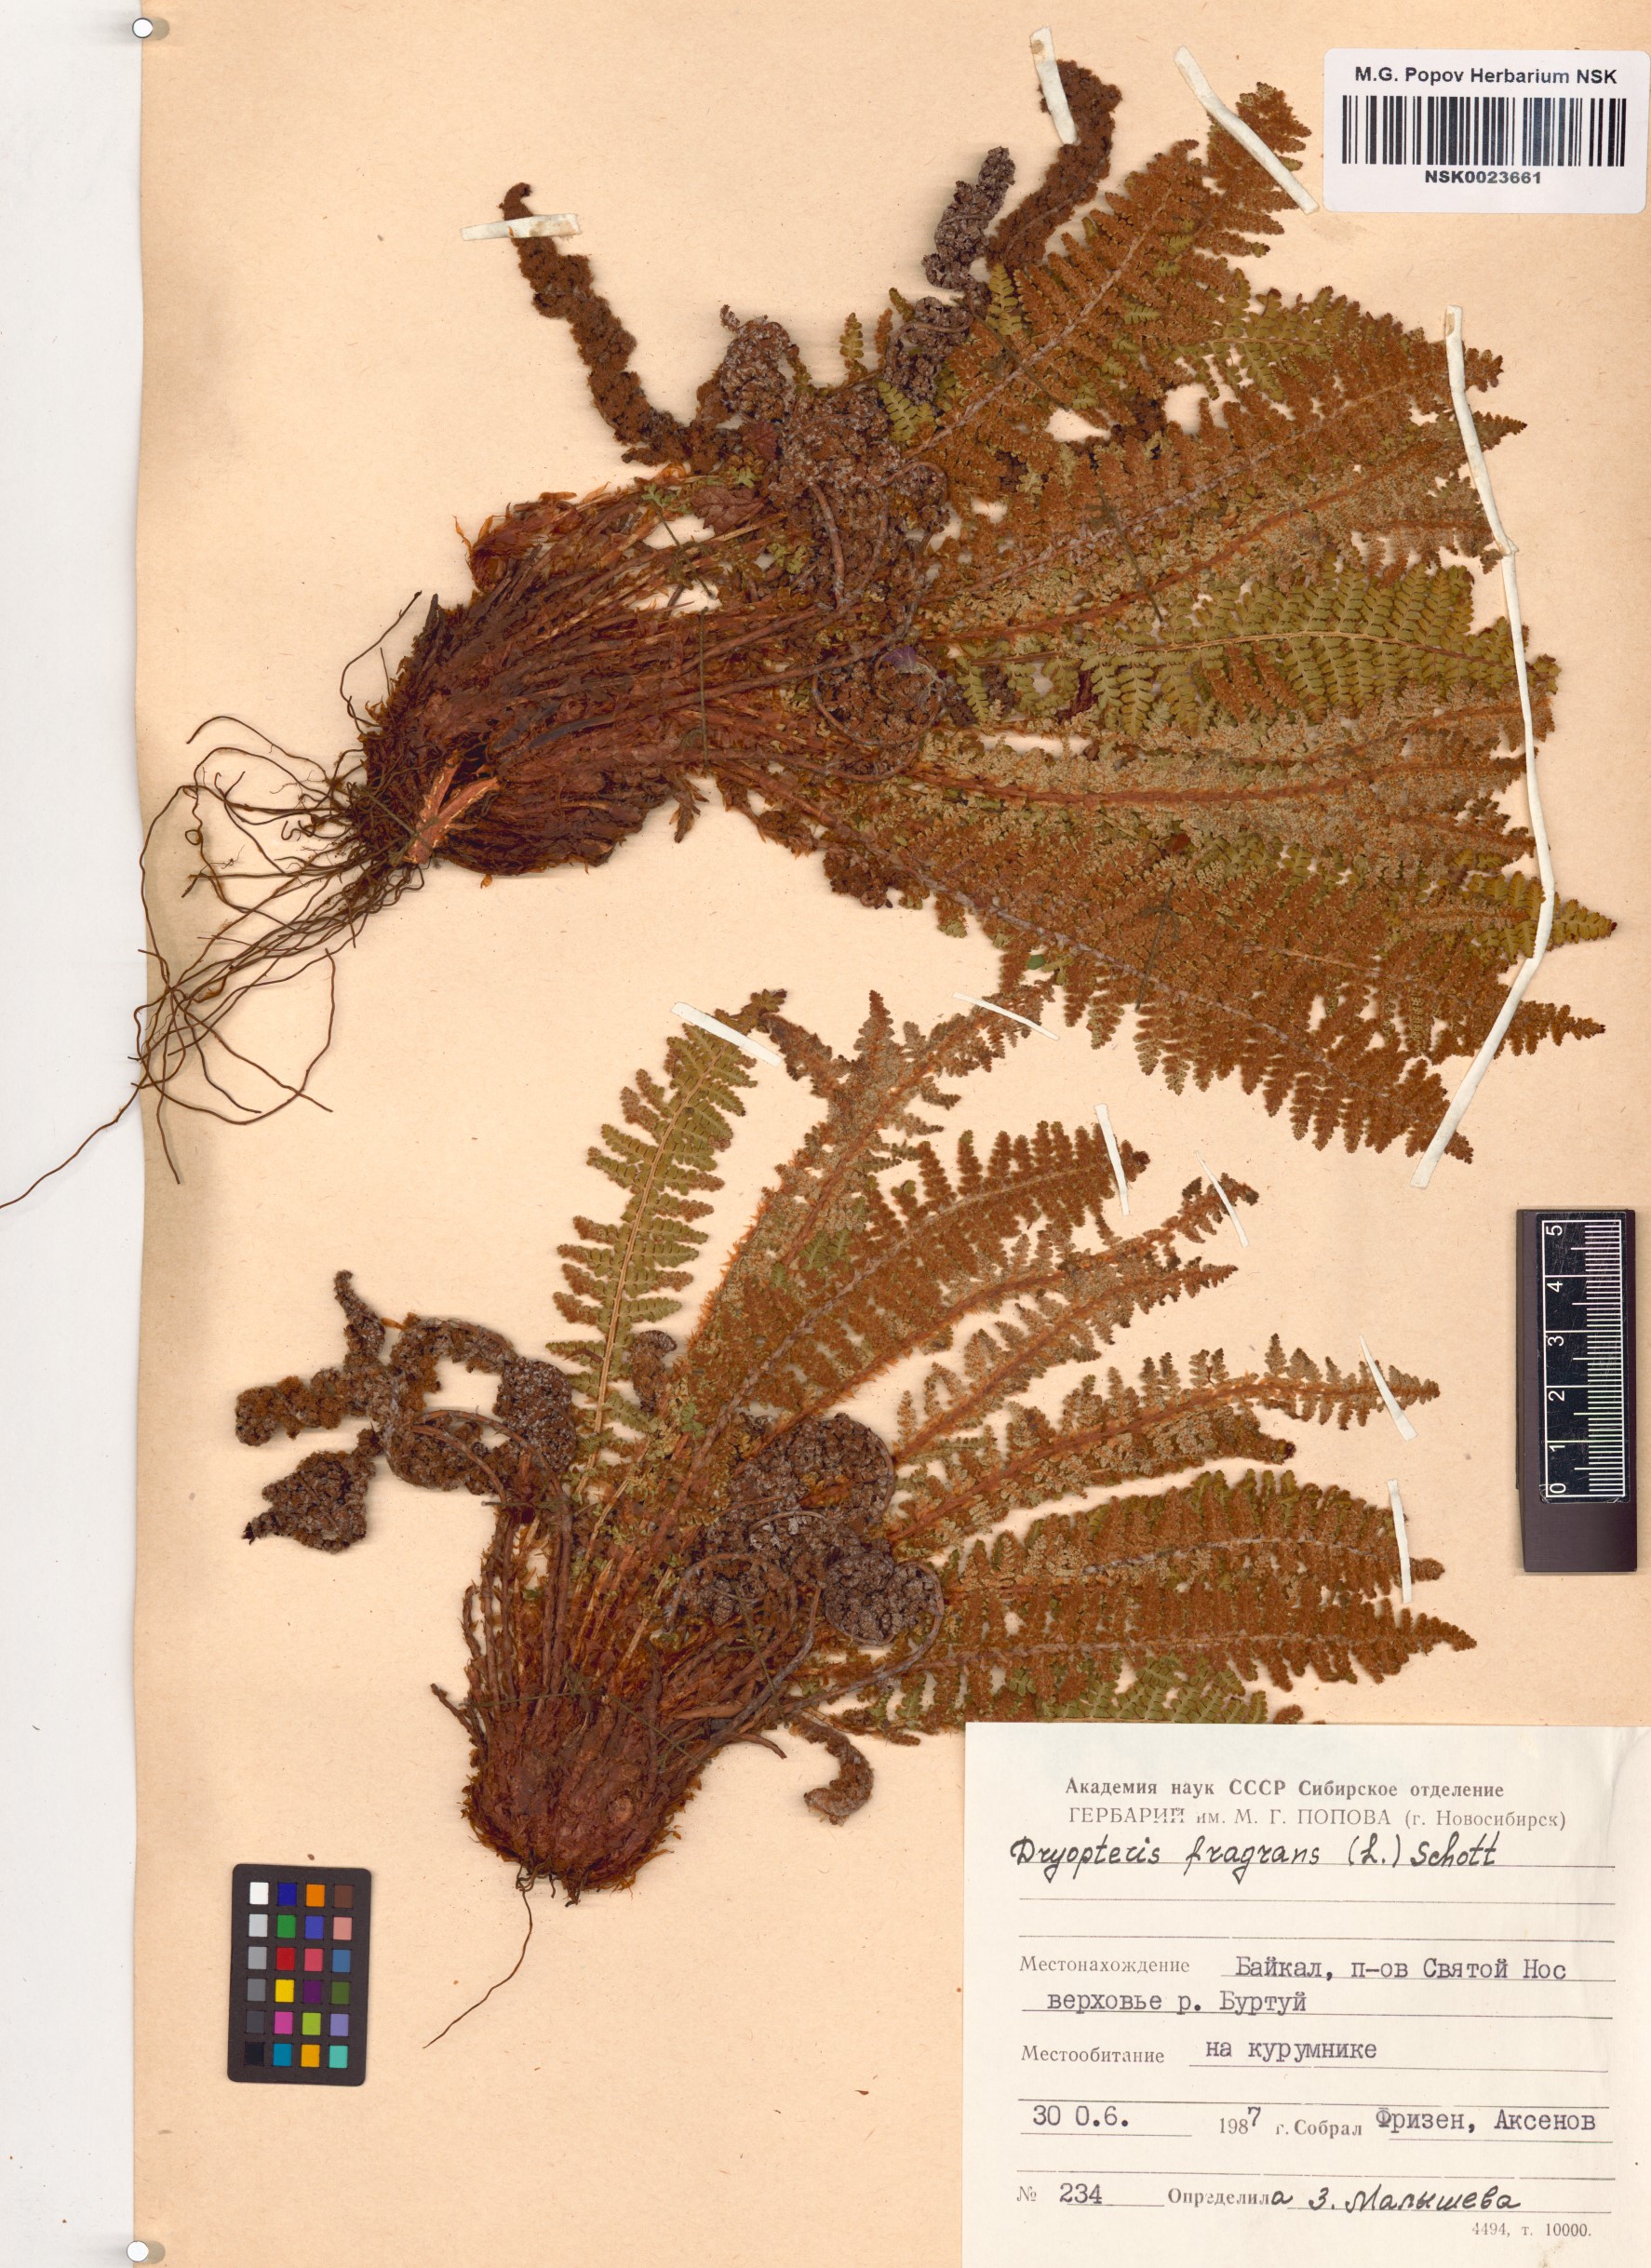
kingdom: Plantae
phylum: Tracheophyta
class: Polypodiopsida
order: Polypodiales
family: Dryopteridaceae
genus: Dryopteris
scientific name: Dryopteris fragrans
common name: Fragrant wood fern
